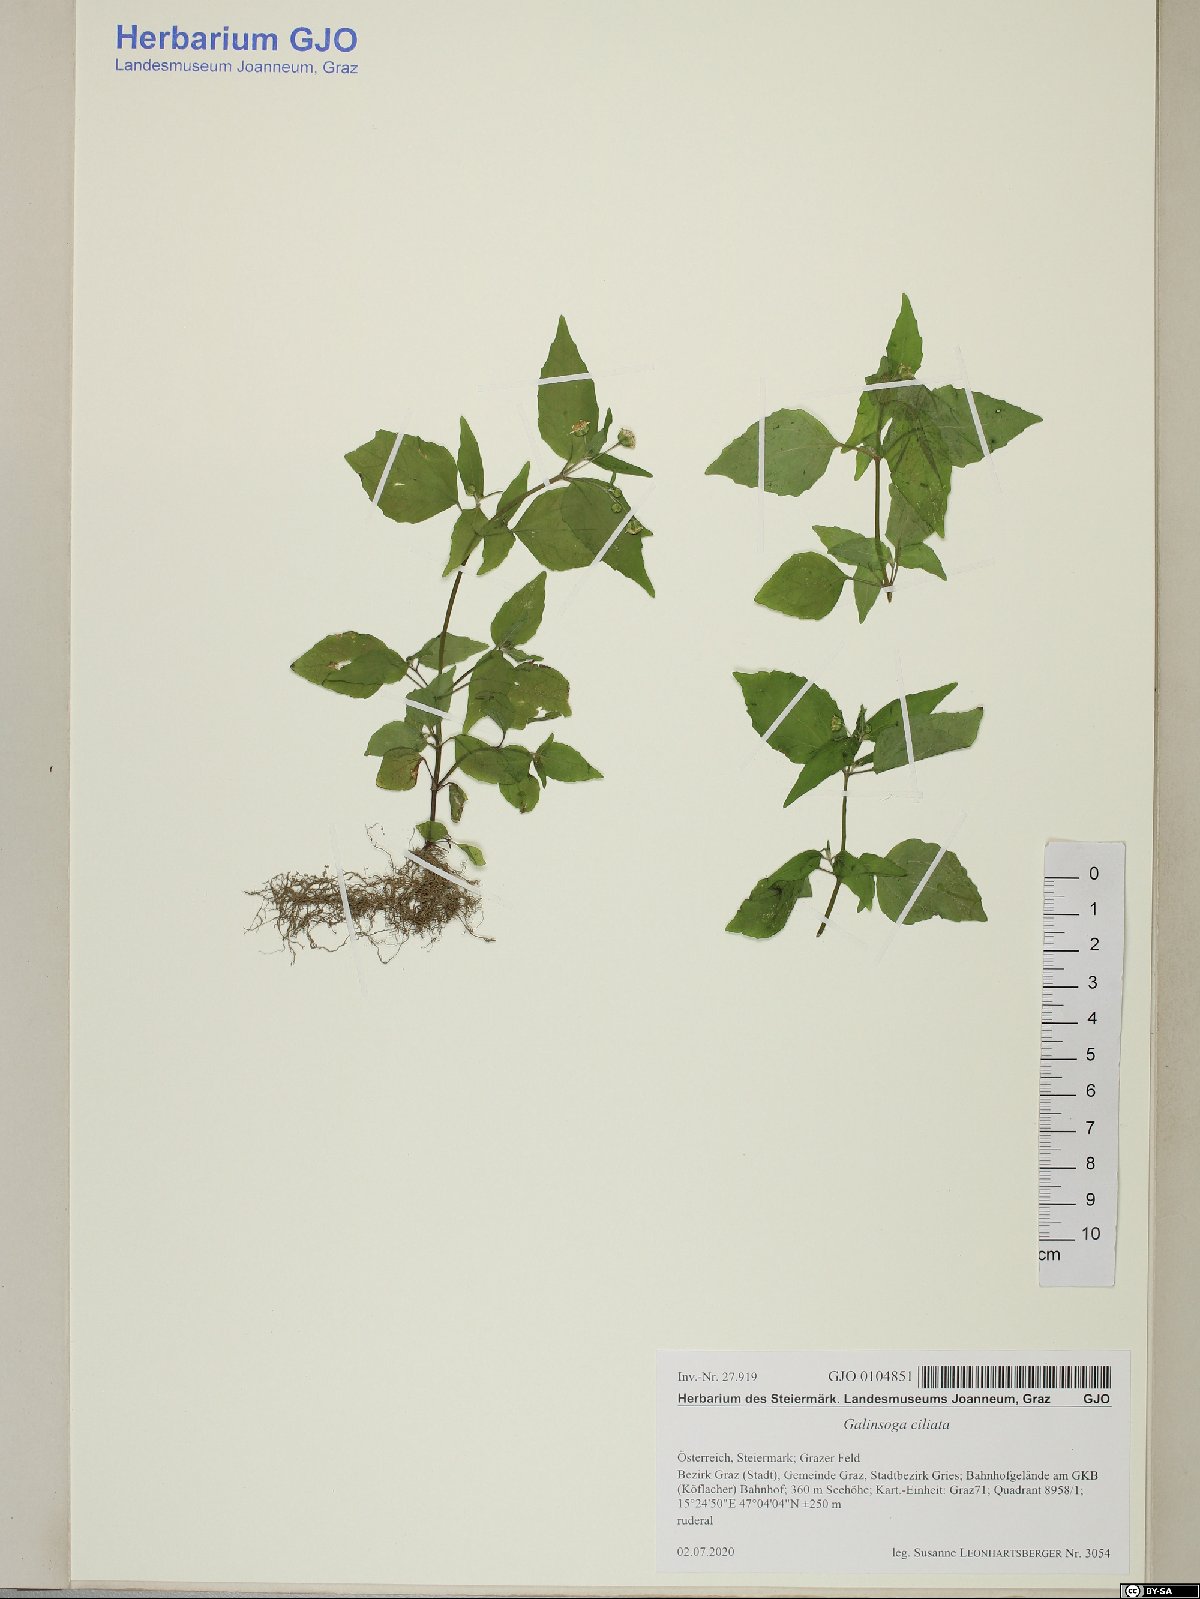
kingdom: Plantae
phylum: Tracheophyta
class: Magnoliopsida
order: Asterales
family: Asteraceae
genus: Galinsoga
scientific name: Galinsoga quadriradiata
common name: Shaggy soldier
